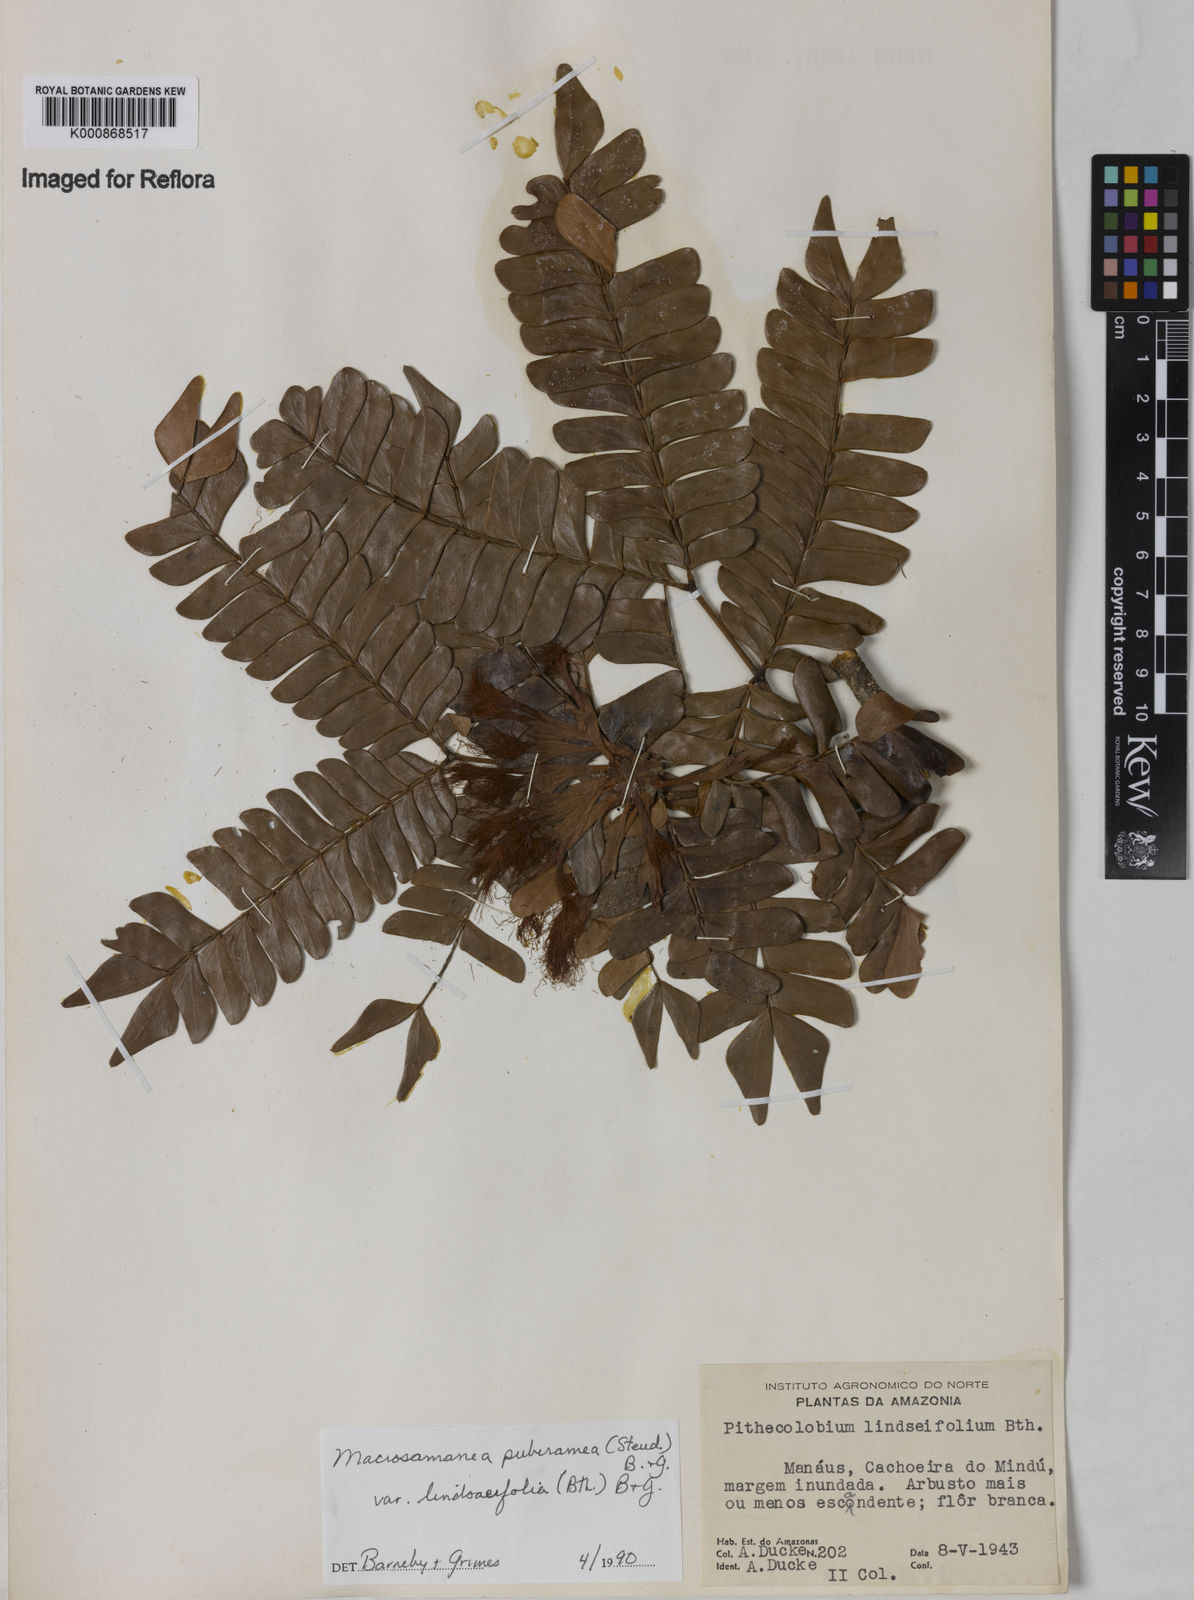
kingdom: Plantae
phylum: Tracheophyta
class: Magnoliopsida
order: Fabales
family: Fabaceae
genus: Macrosamanea
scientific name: Macrosamanea pubiramea
